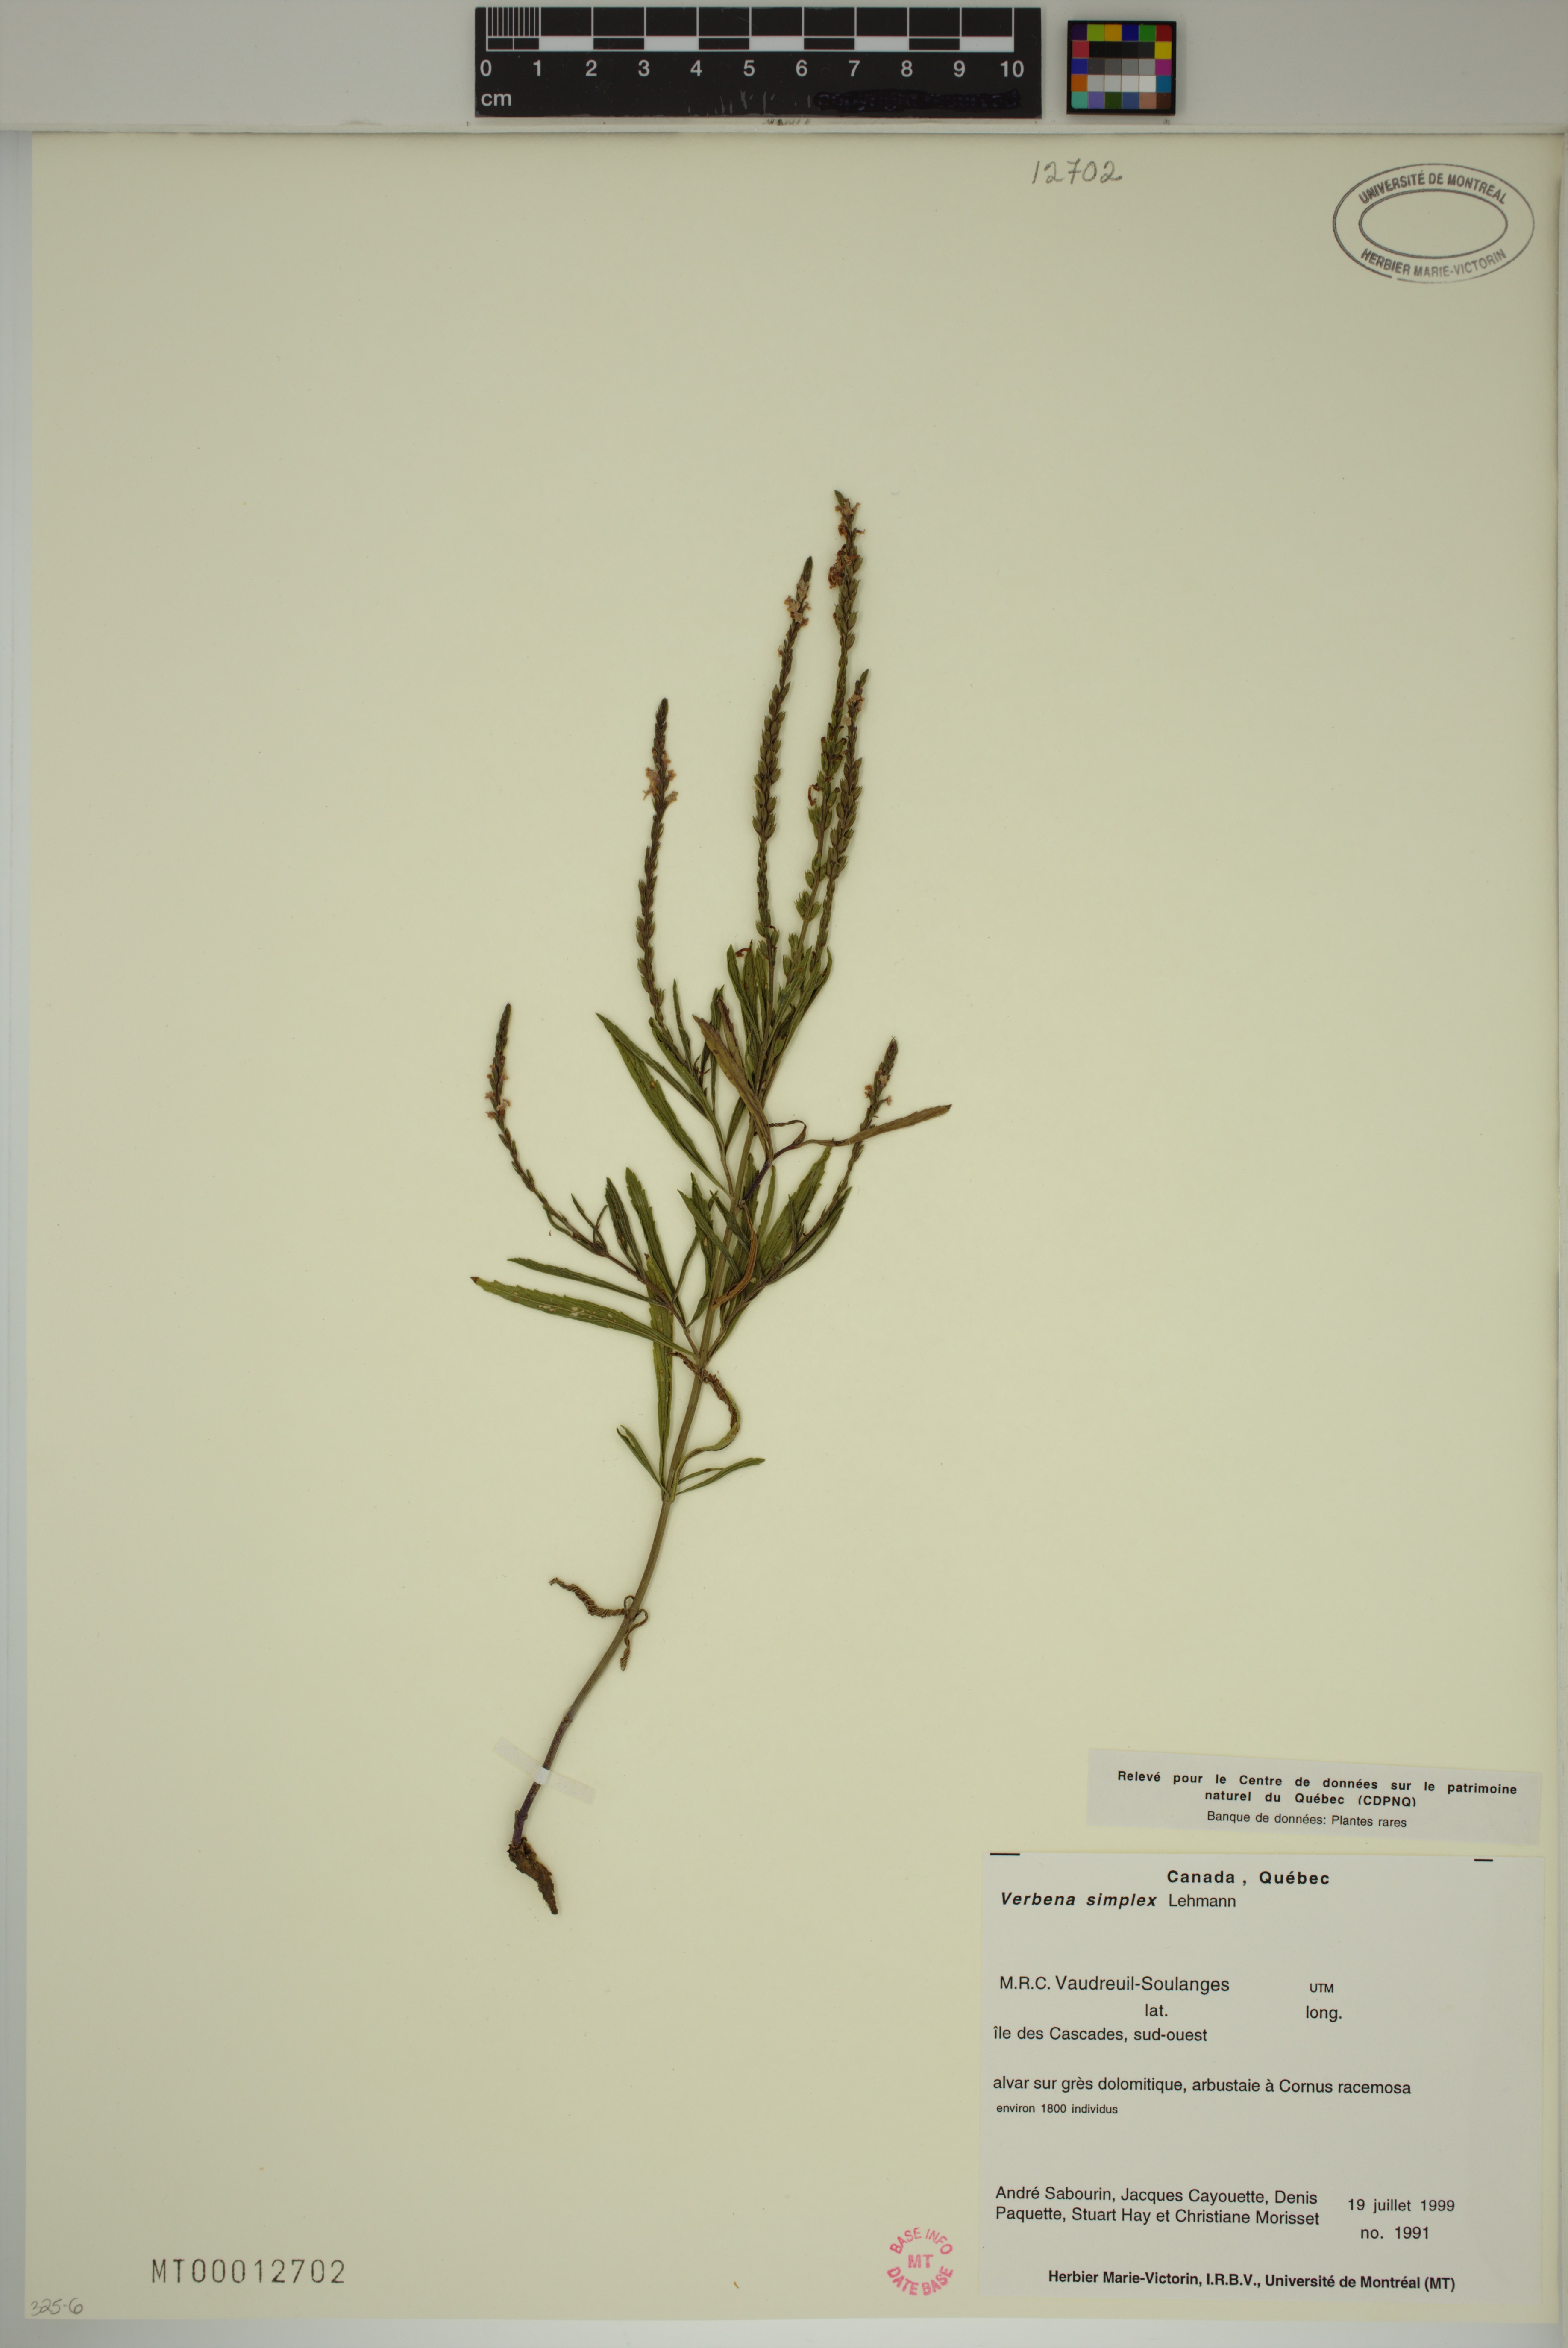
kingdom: Plantae
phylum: Tracheophyta
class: Magnoliopsida
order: Lamiales
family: Verbenaceae
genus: Verbena
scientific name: Verbena simplex
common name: Narrow-leaf vervain
